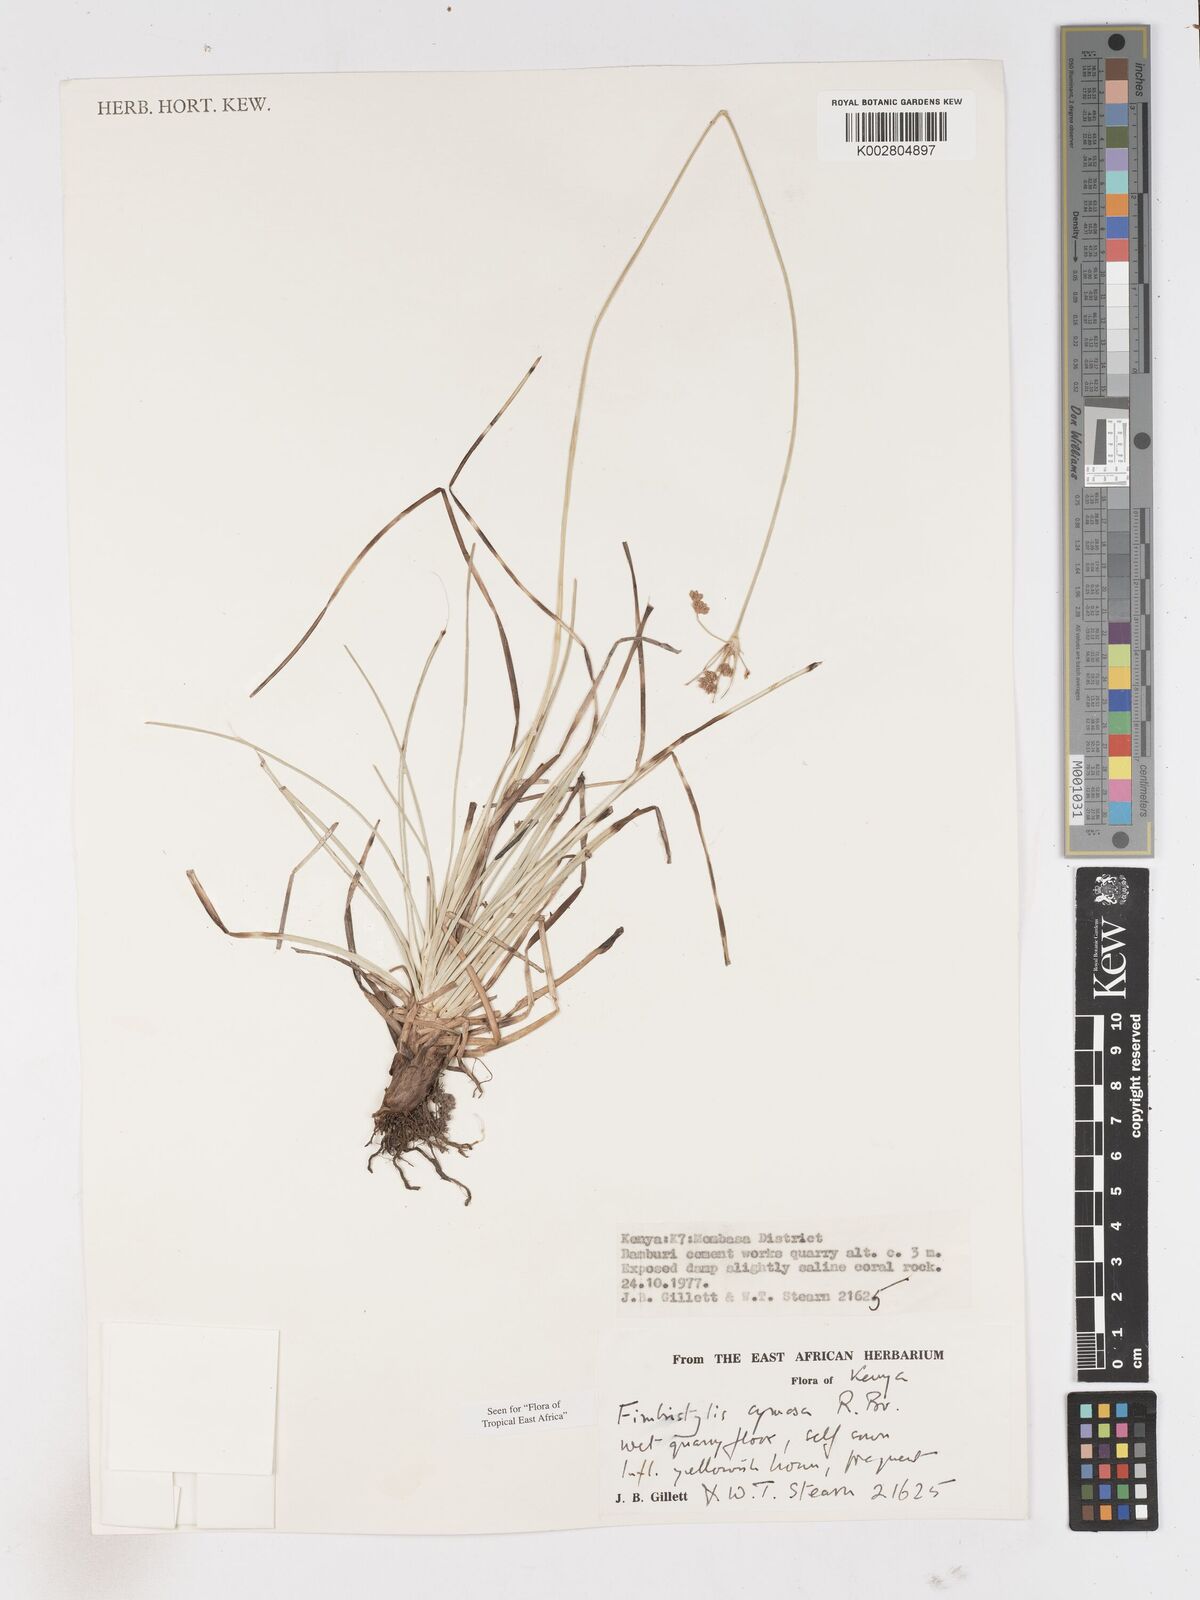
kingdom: Plantae
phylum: Tracheophyta
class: Liliopsida
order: Poales
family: Cyperaceae
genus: Fimbristylis
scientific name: Fimbristylis cymosa
